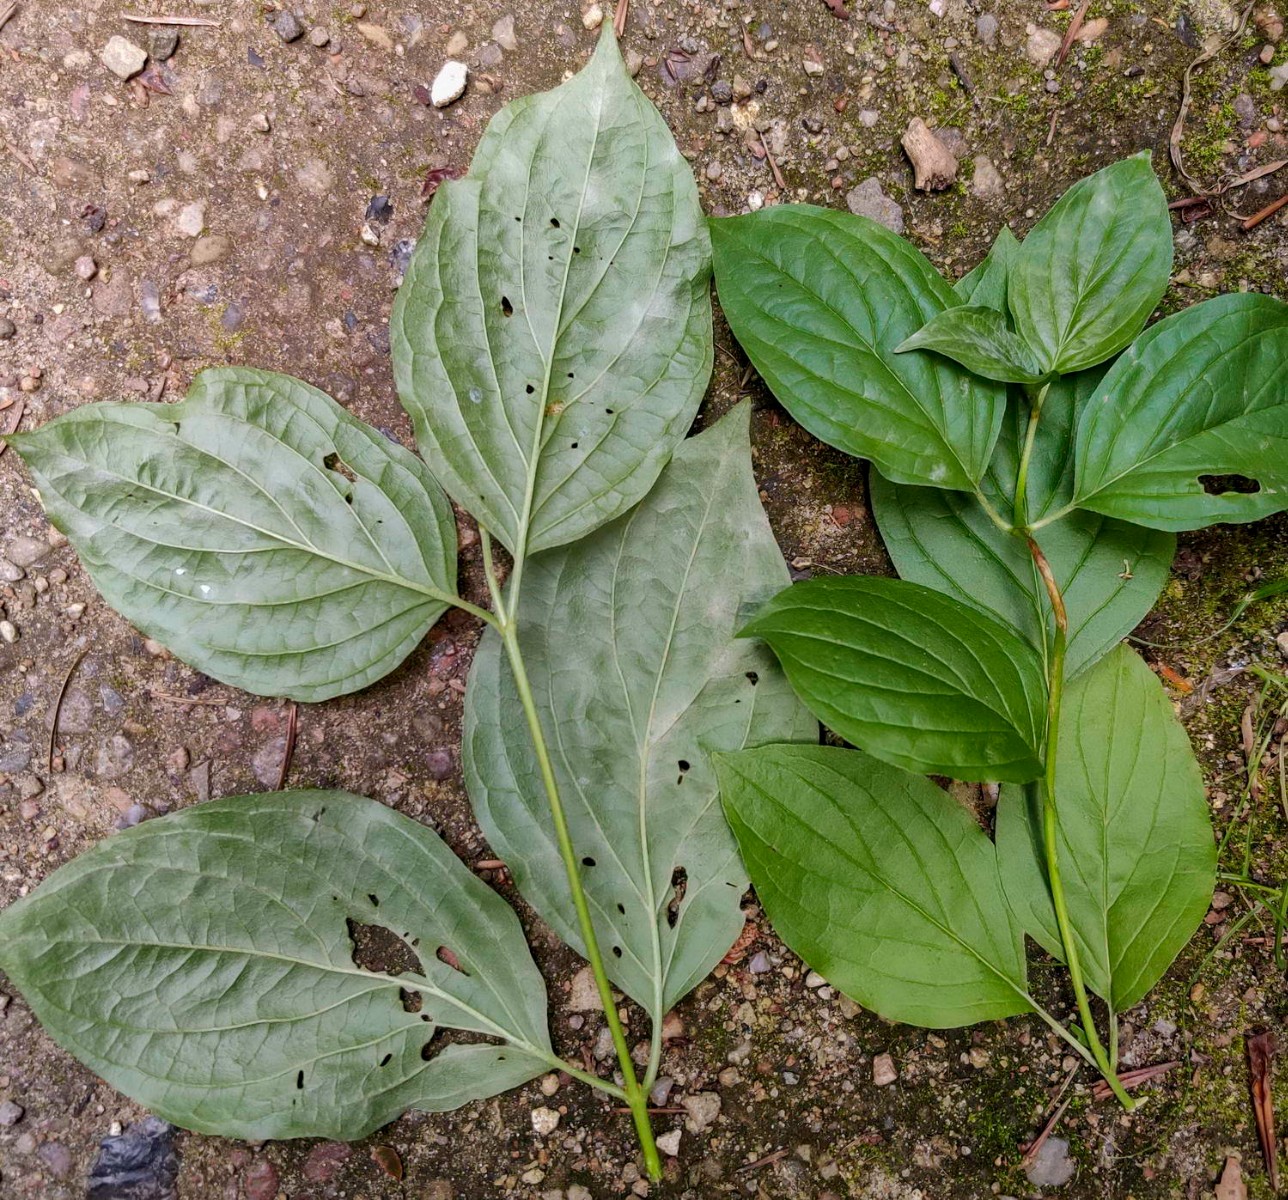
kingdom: Fungi
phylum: Ascomycota
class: Leotiomycetes
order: Helotiales
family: Erysiphaceae
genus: Erysiphe
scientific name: Erysiphe tortilis
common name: kornel-meldug
